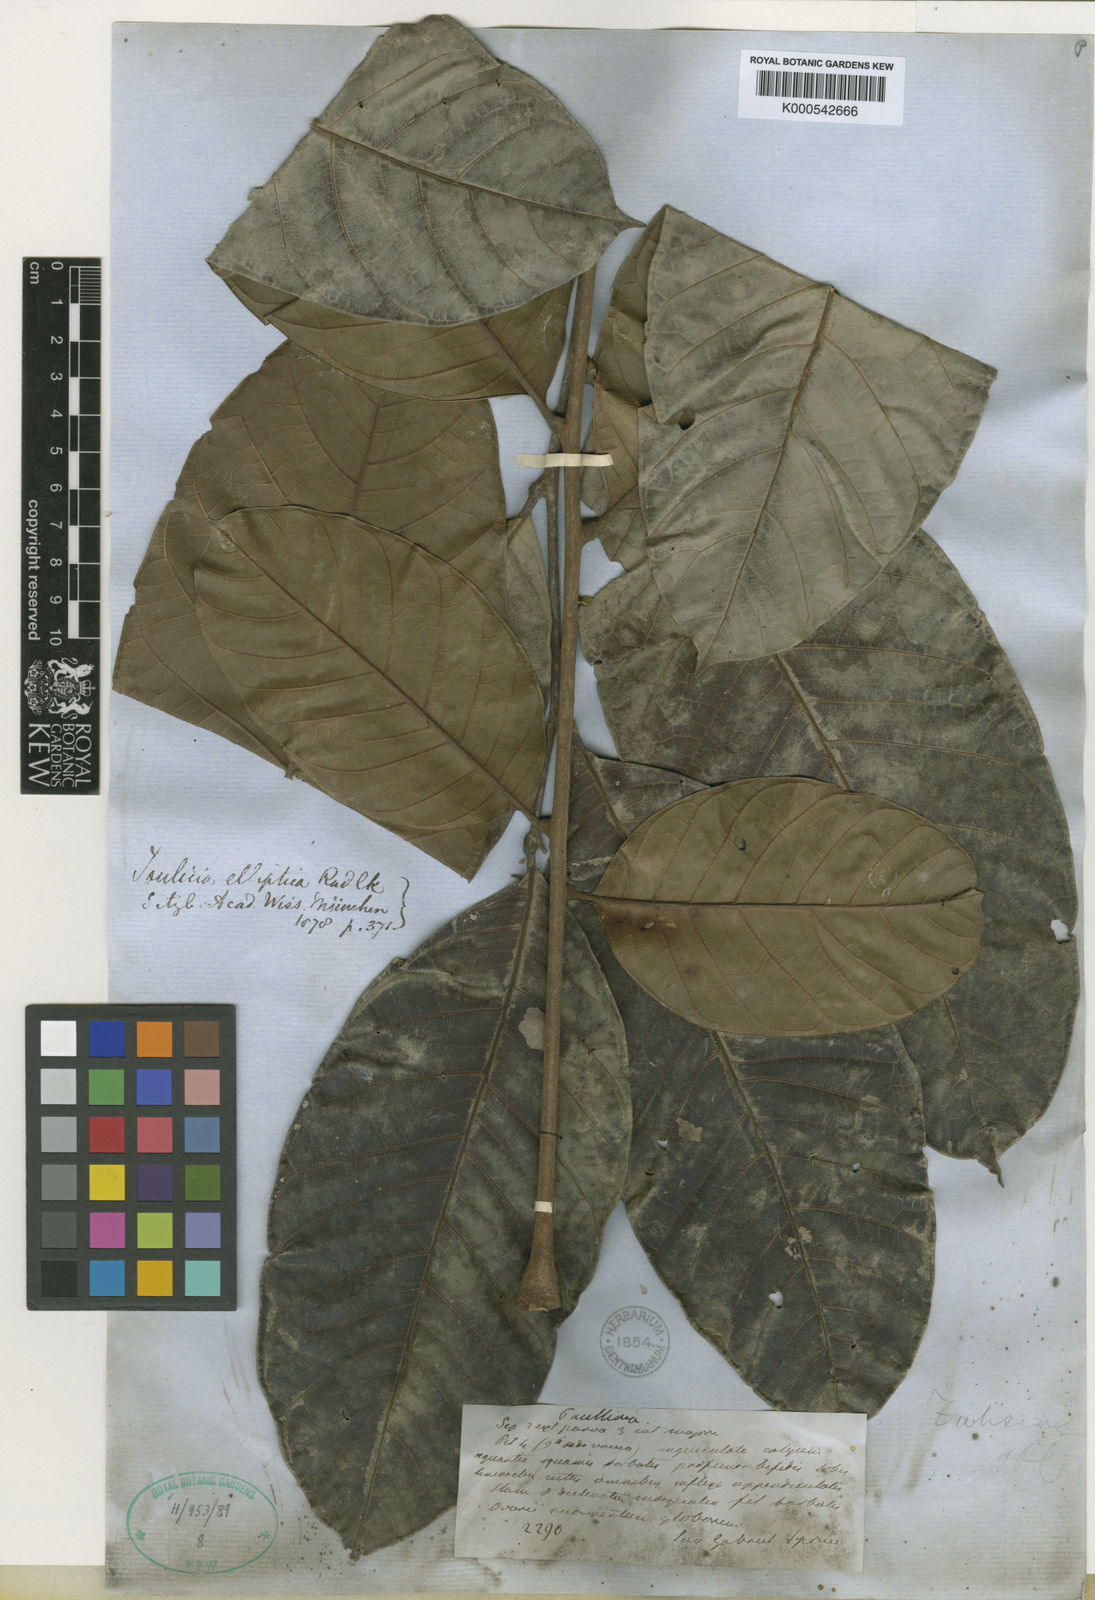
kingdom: Plantae
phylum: Tracheophyta
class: Magnoliopsida
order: Sapindales
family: Sapindaceae
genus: Toulicia
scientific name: Toulicia elliptica
